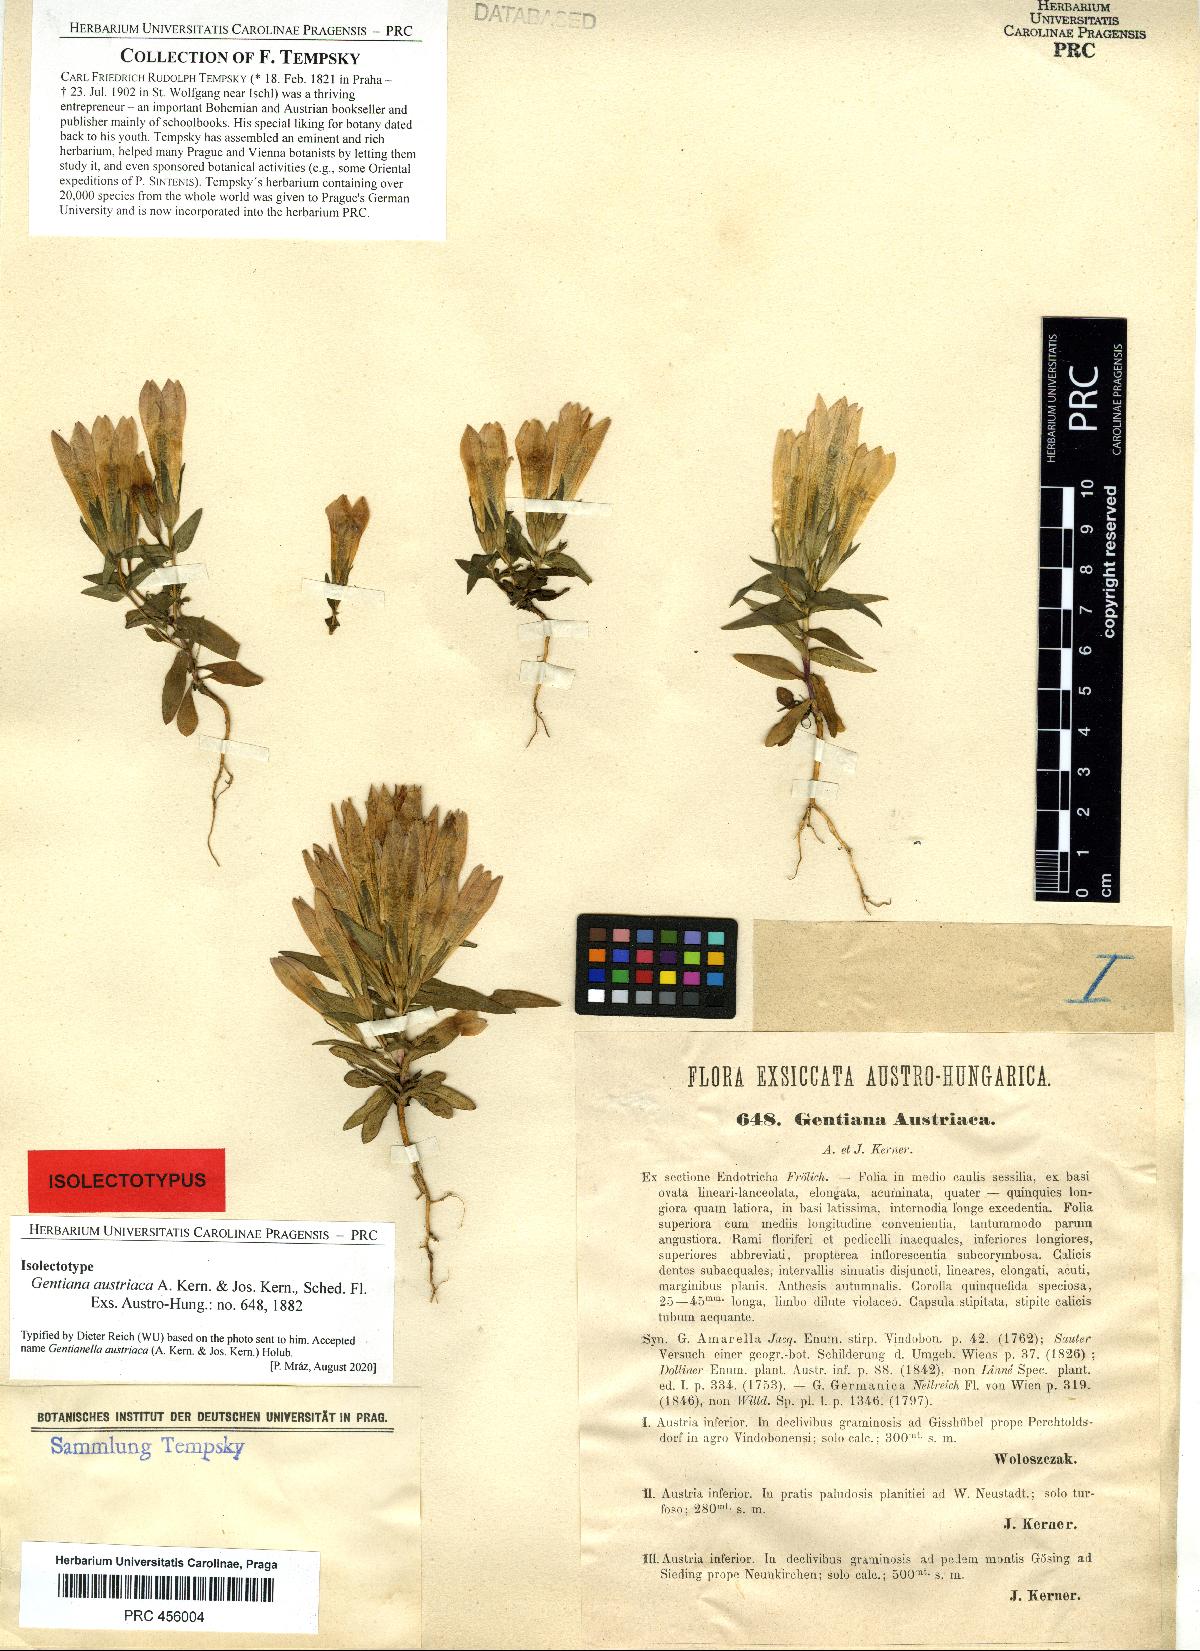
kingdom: Plantae
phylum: Tracheophyta
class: Magnoliopsida
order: Gentianales
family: Gentianaceae
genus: Gentianella
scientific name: Gentianella austriaca
